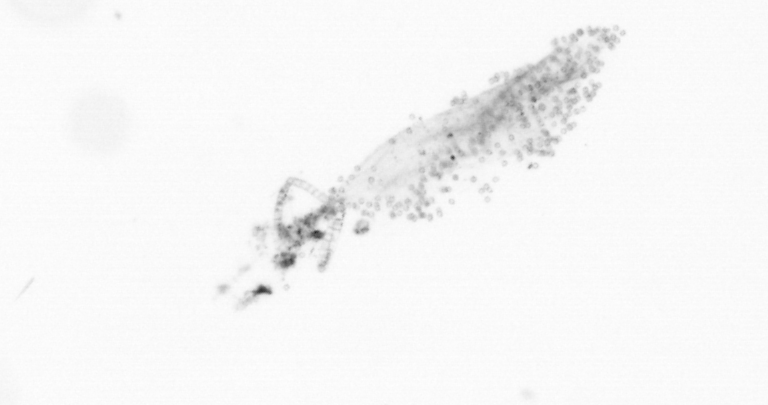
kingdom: Chromista
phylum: Ochrophyta
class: Bacillariophyceae
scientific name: Bacillariophyceae
